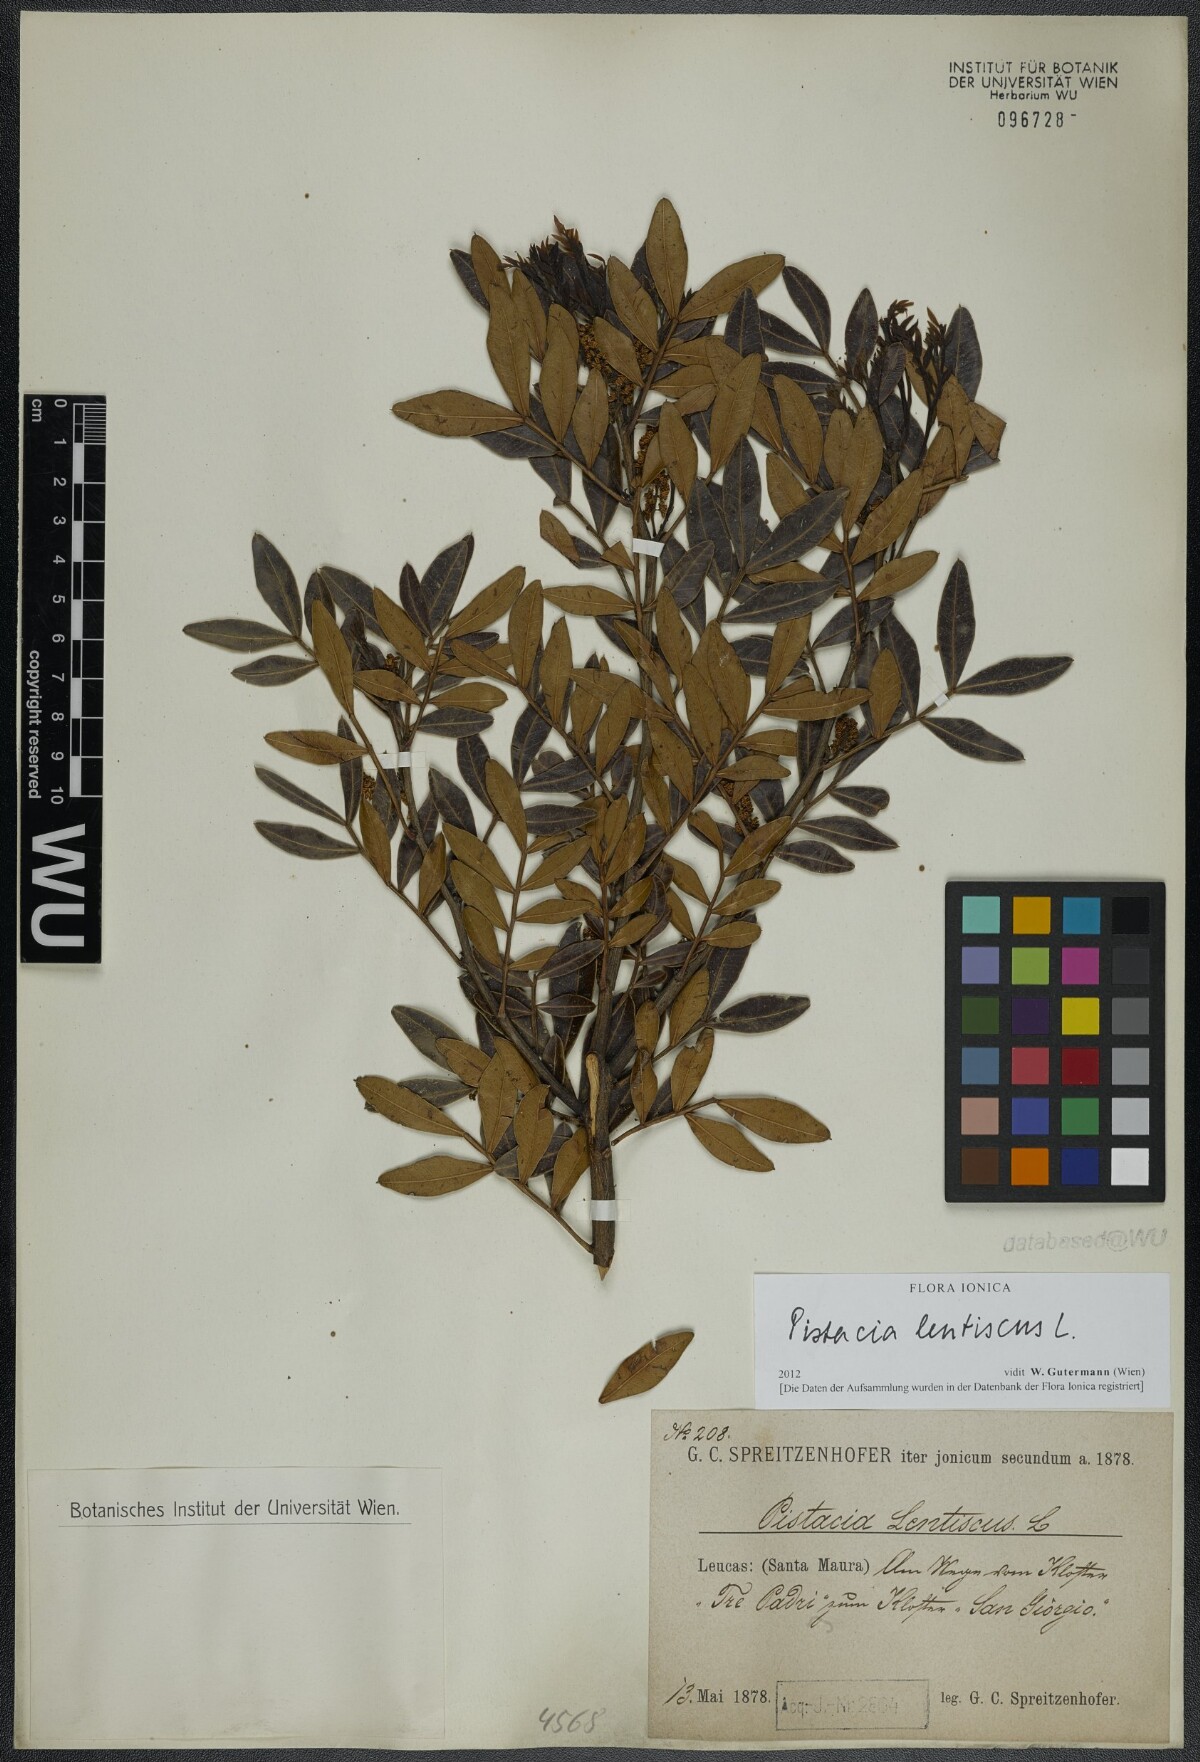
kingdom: Plantae
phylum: Tracheophyta
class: Magnoliopsida
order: Sapindales
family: Anacardiaceae
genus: Pistacia
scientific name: Pistacia lentiscus
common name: Lentisk
